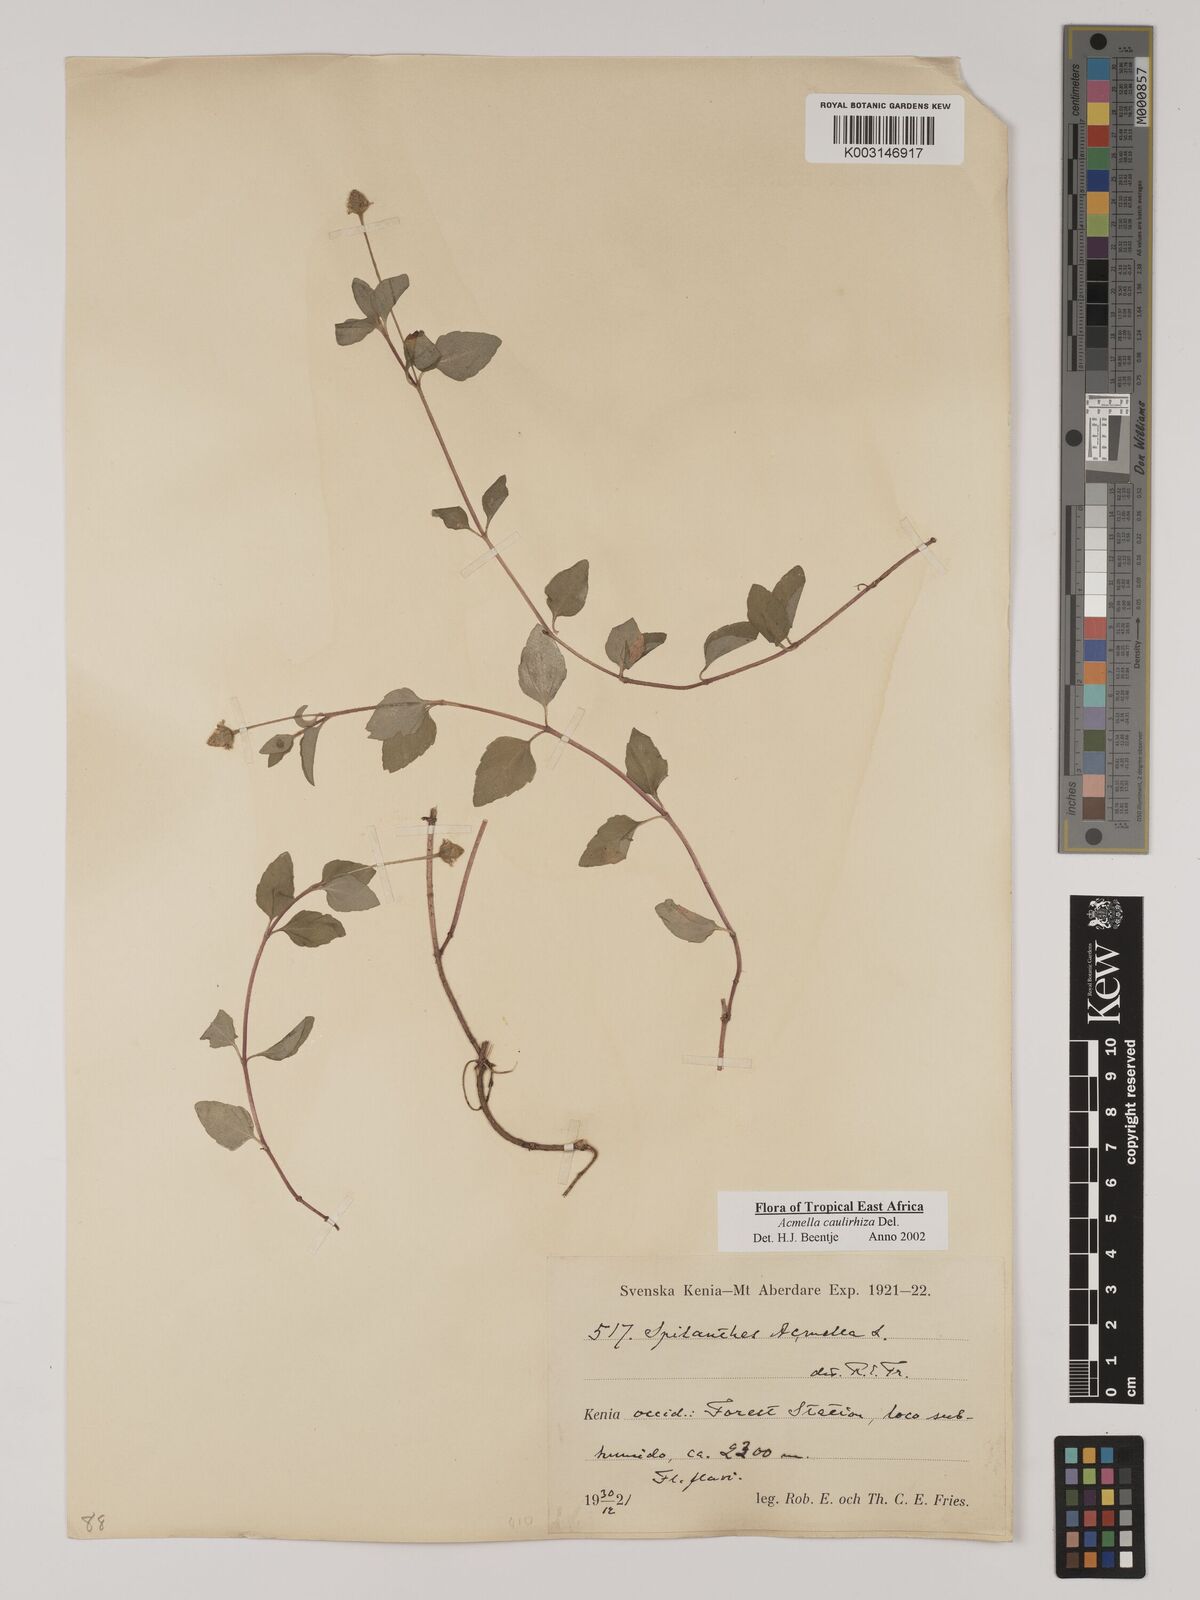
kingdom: Plantae
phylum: Tracheophyta
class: Magnoliopsida
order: Asterales
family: Asteraceae
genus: Acmella
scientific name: Acmella caulirhiza
